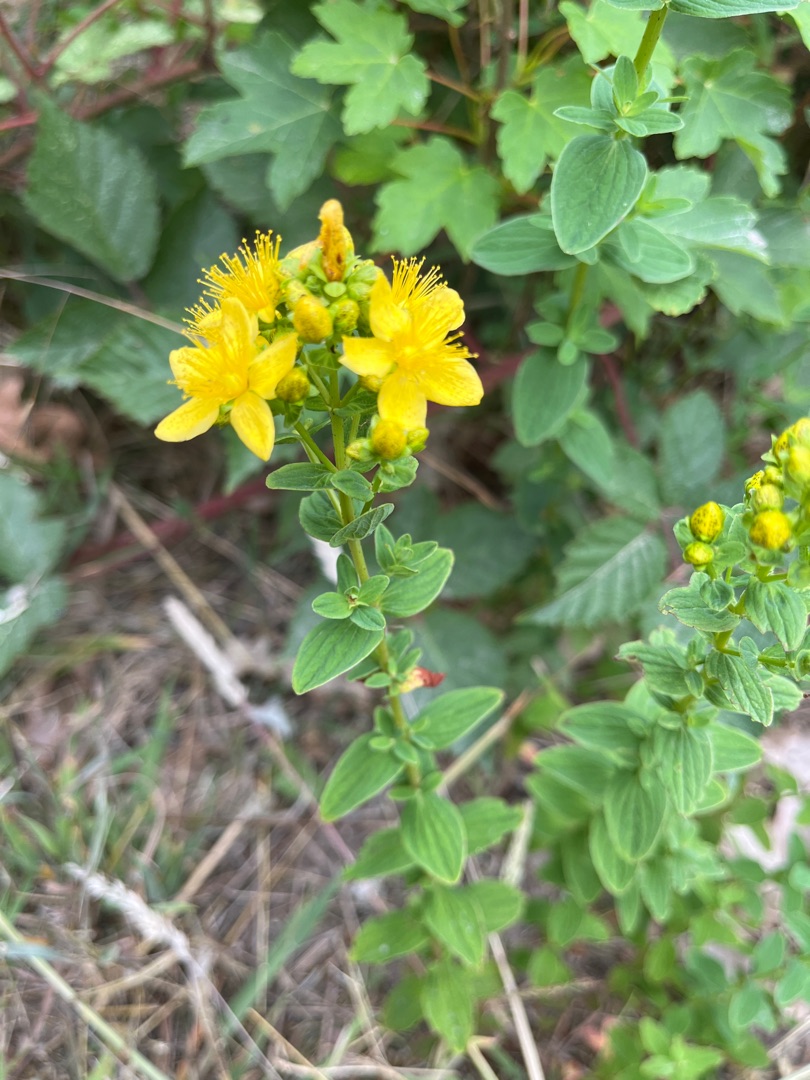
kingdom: Plantae
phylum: Tracheophyta
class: Magnoliopsida
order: Malpighiales
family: Hypericaceae
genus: Hypericum
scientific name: Hypericum maculatum
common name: Kantet perikon
